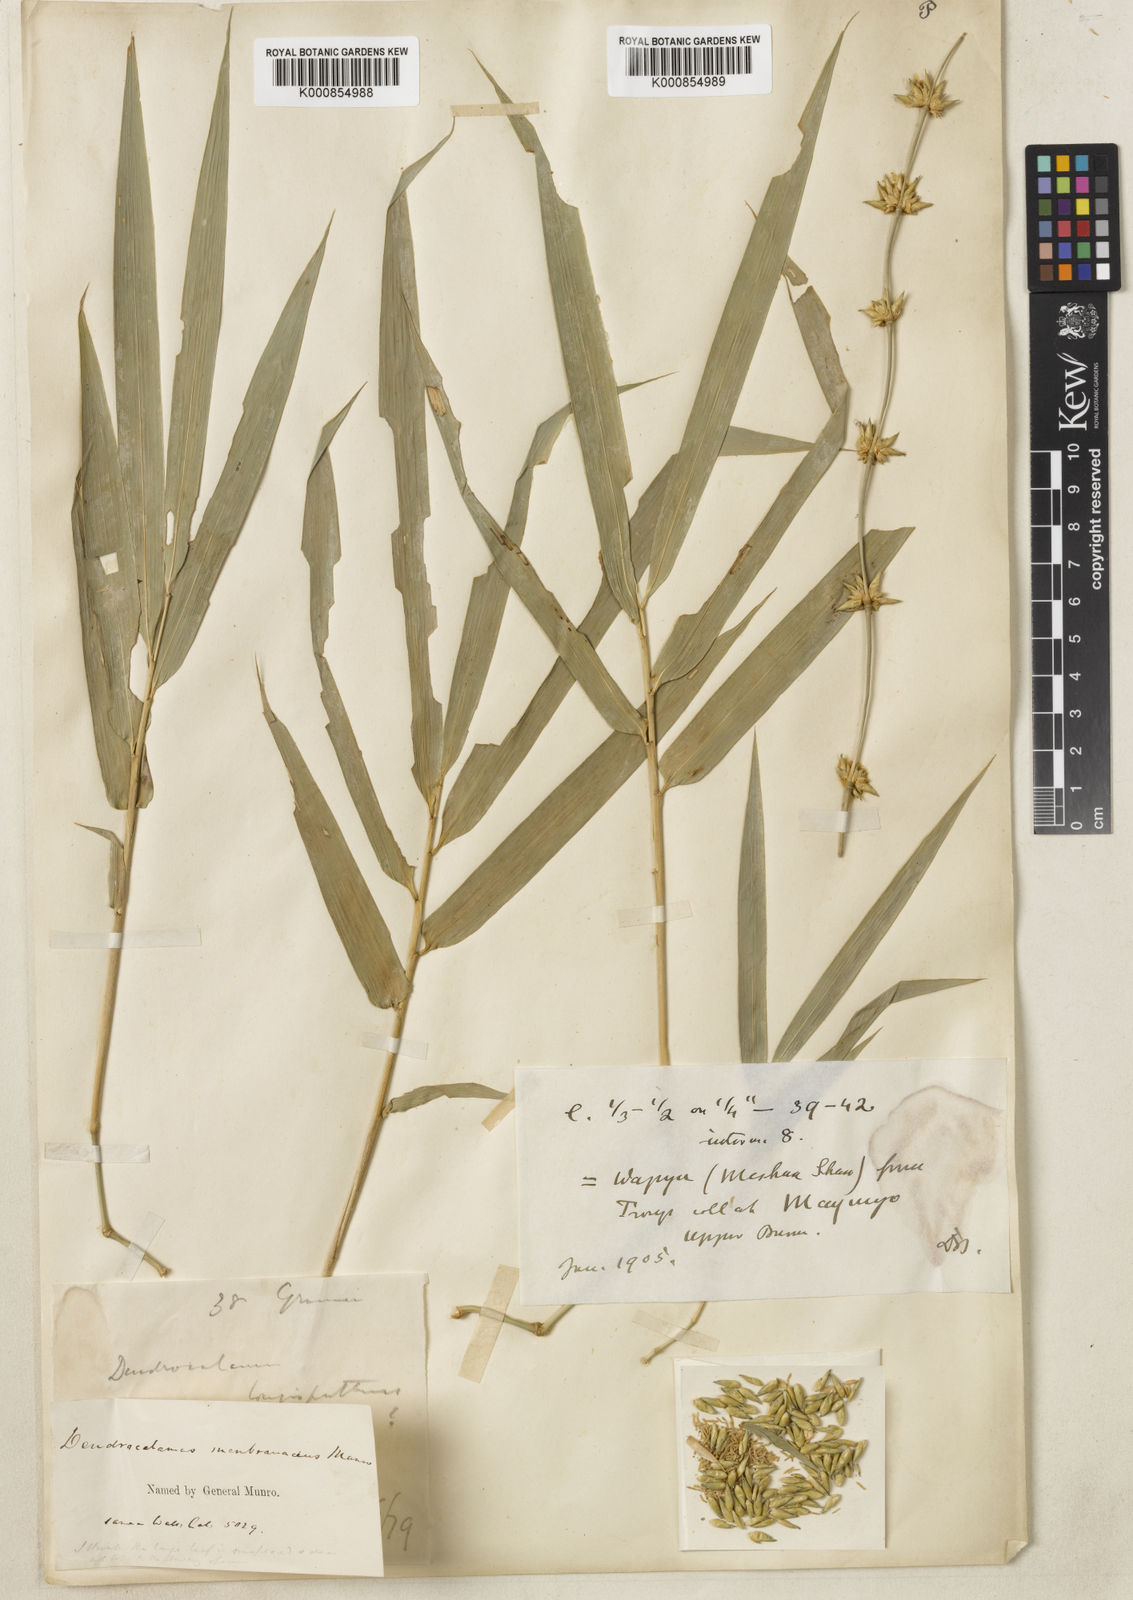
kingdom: Plantae
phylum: Tracheophyta
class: Liliopsida
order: Poales
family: Poaceae
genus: Dendrocalamus
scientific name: Dendrocalamus membranaceus
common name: White bamboo
